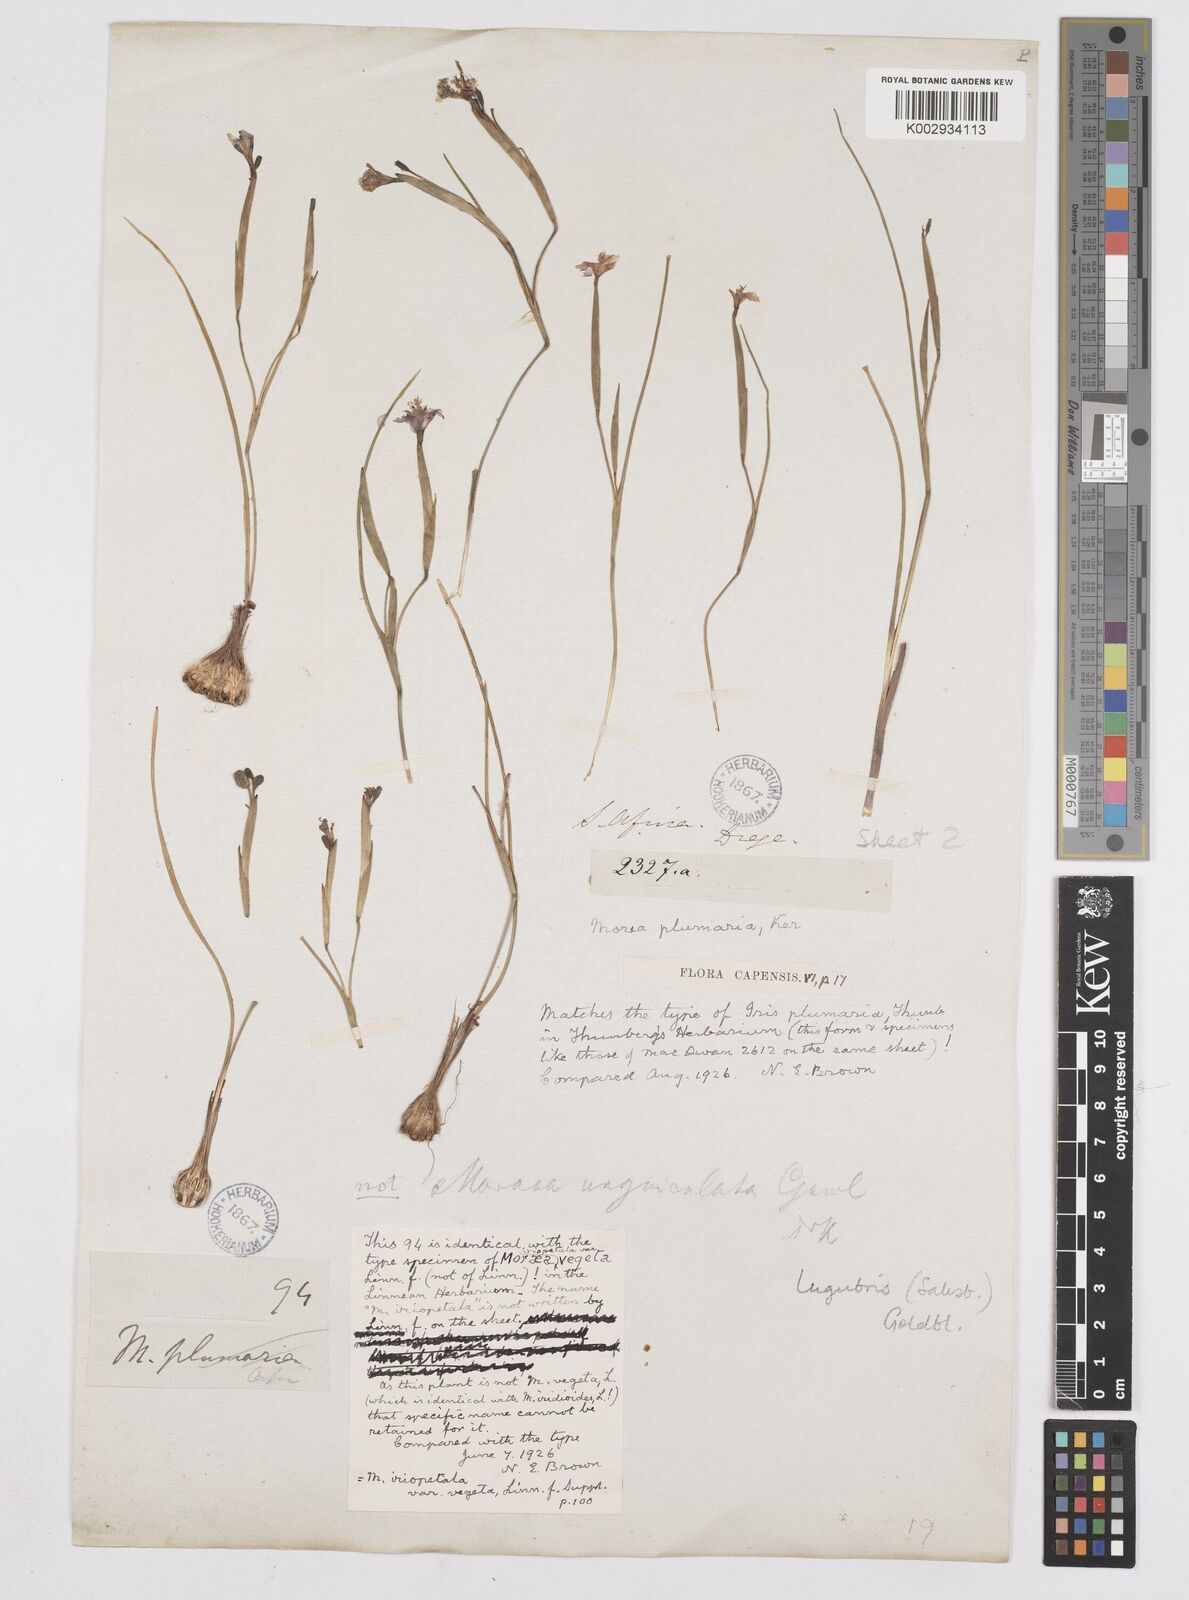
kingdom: Plantae
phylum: Tracheophyta
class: Liliopsida
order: Asparagales
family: Iridaceae
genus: Moraea
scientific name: Moraea lugubris
